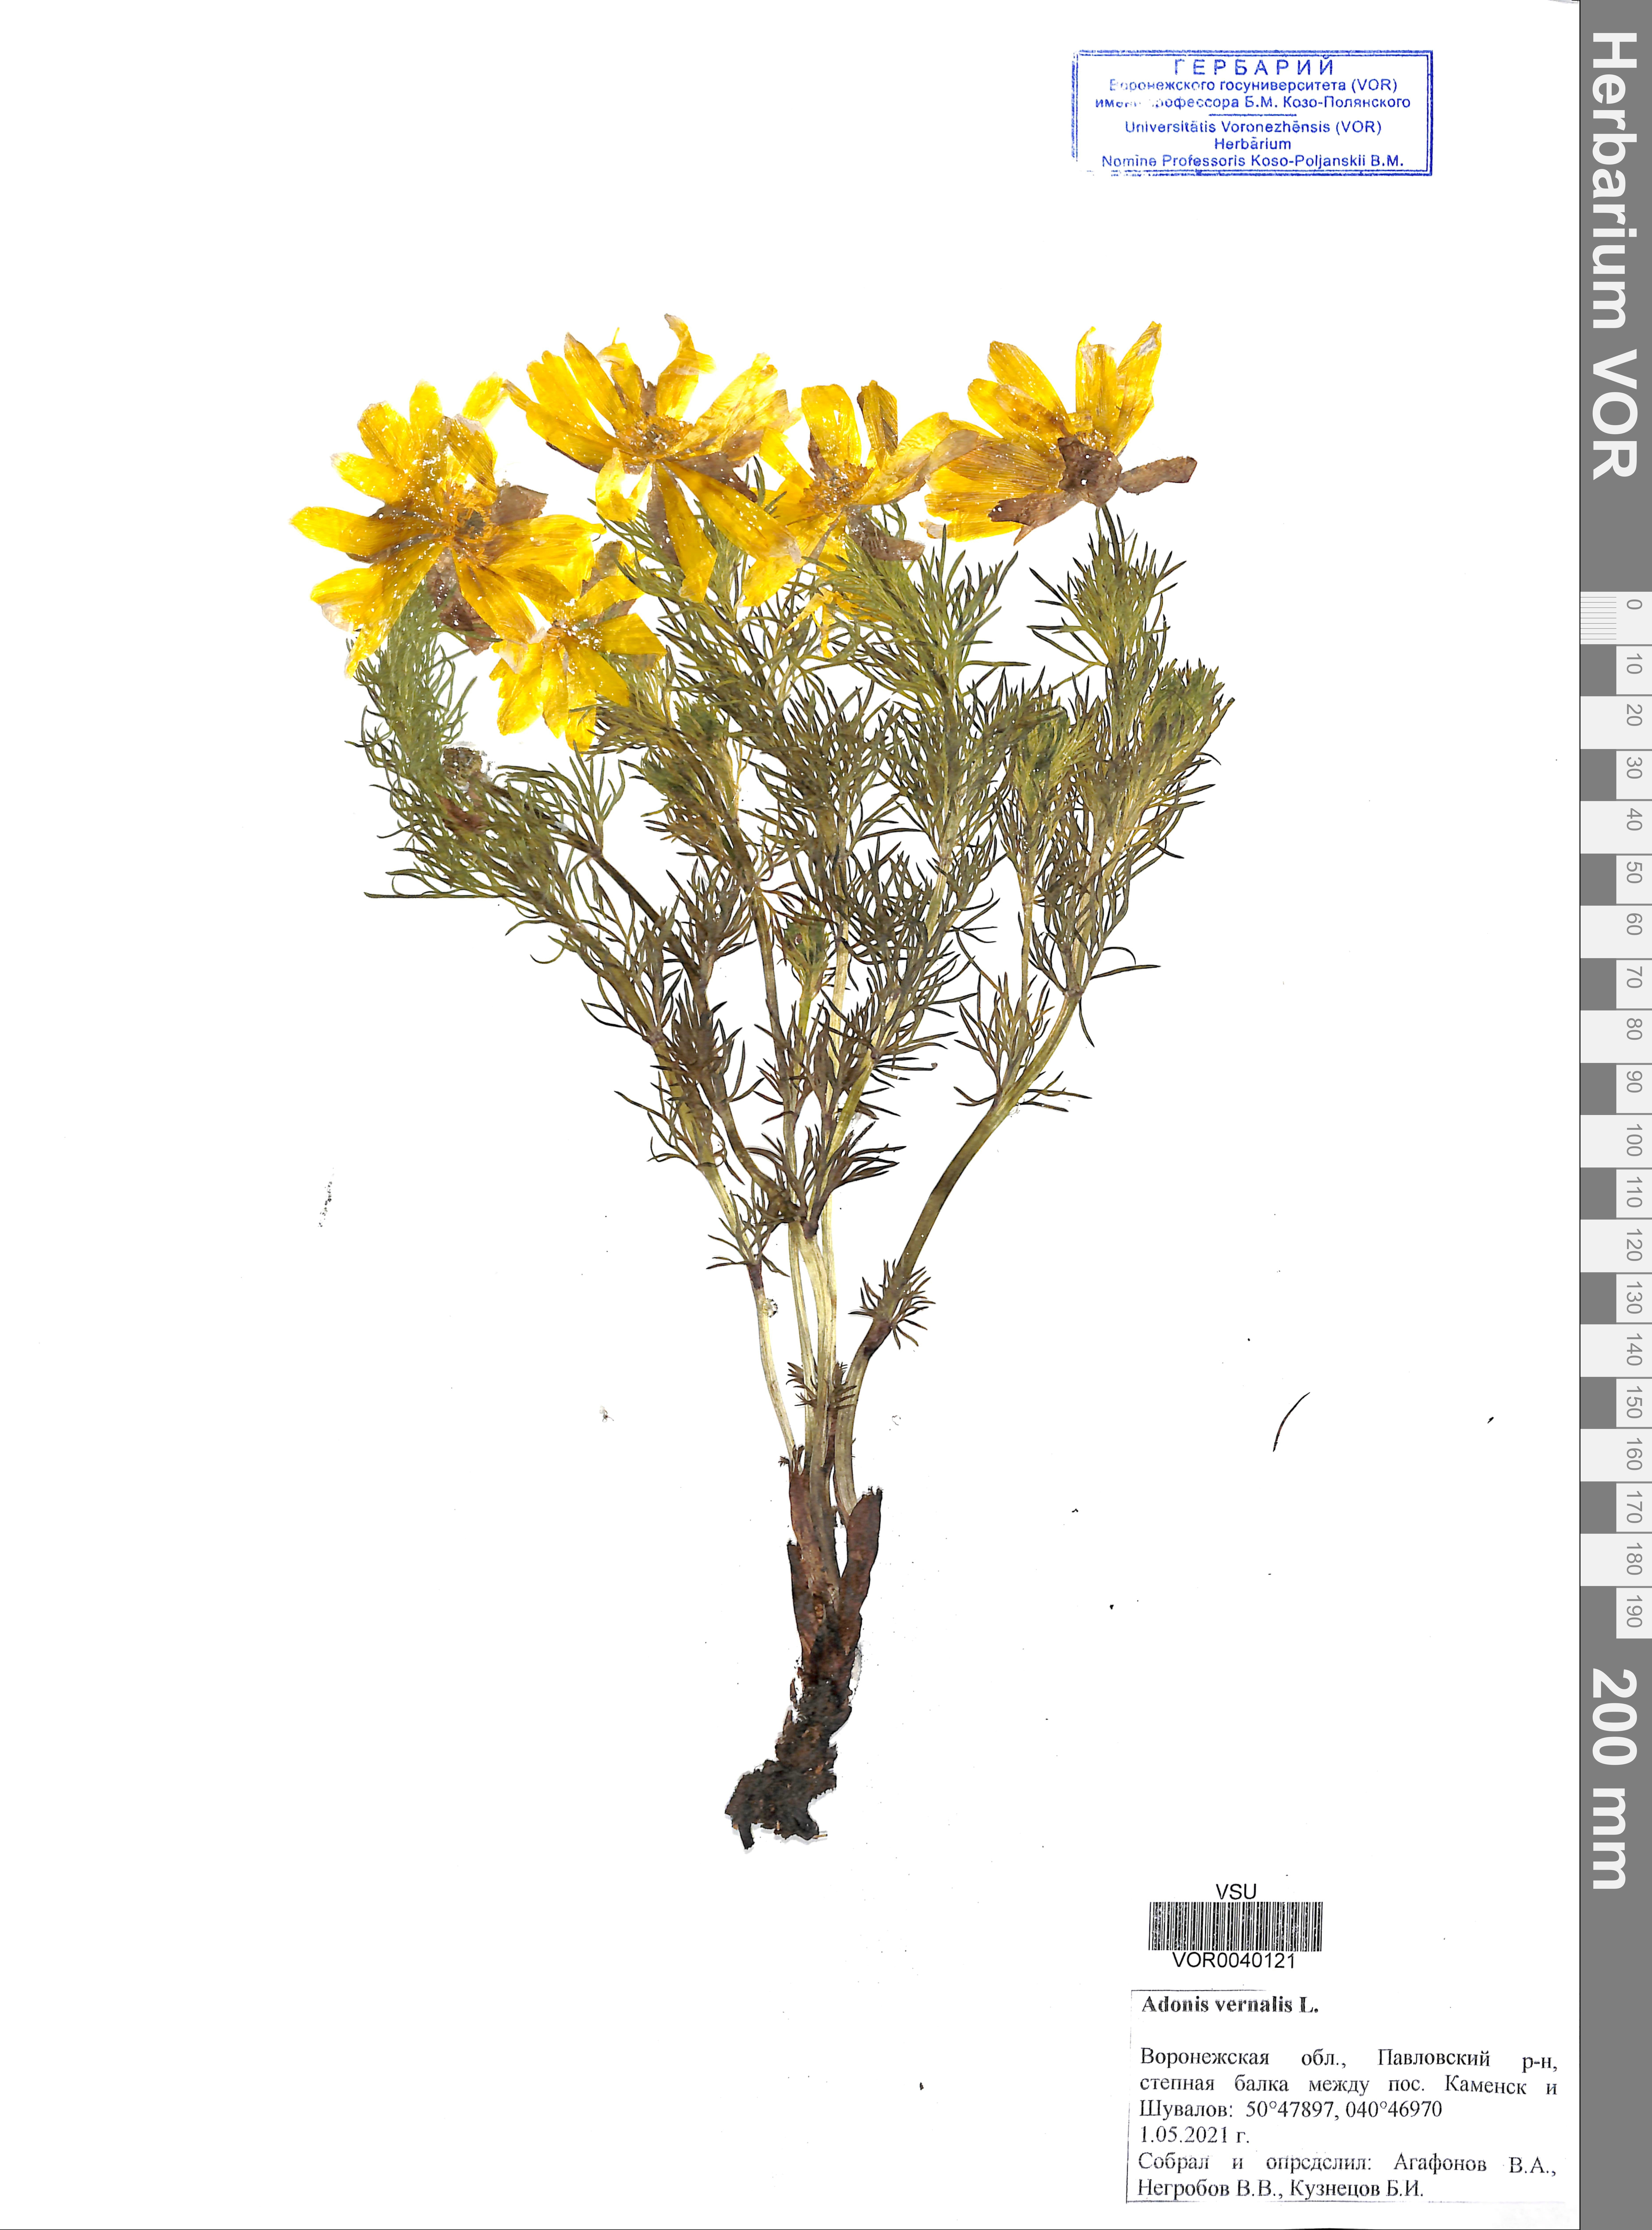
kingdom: Plantae
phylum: Tracheophyta
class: Magnoliopsida
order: Ranunculales
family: Ranunculaceae
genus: Adonis
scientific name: Adonis vernalis
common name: Yellow pheasants-eye
